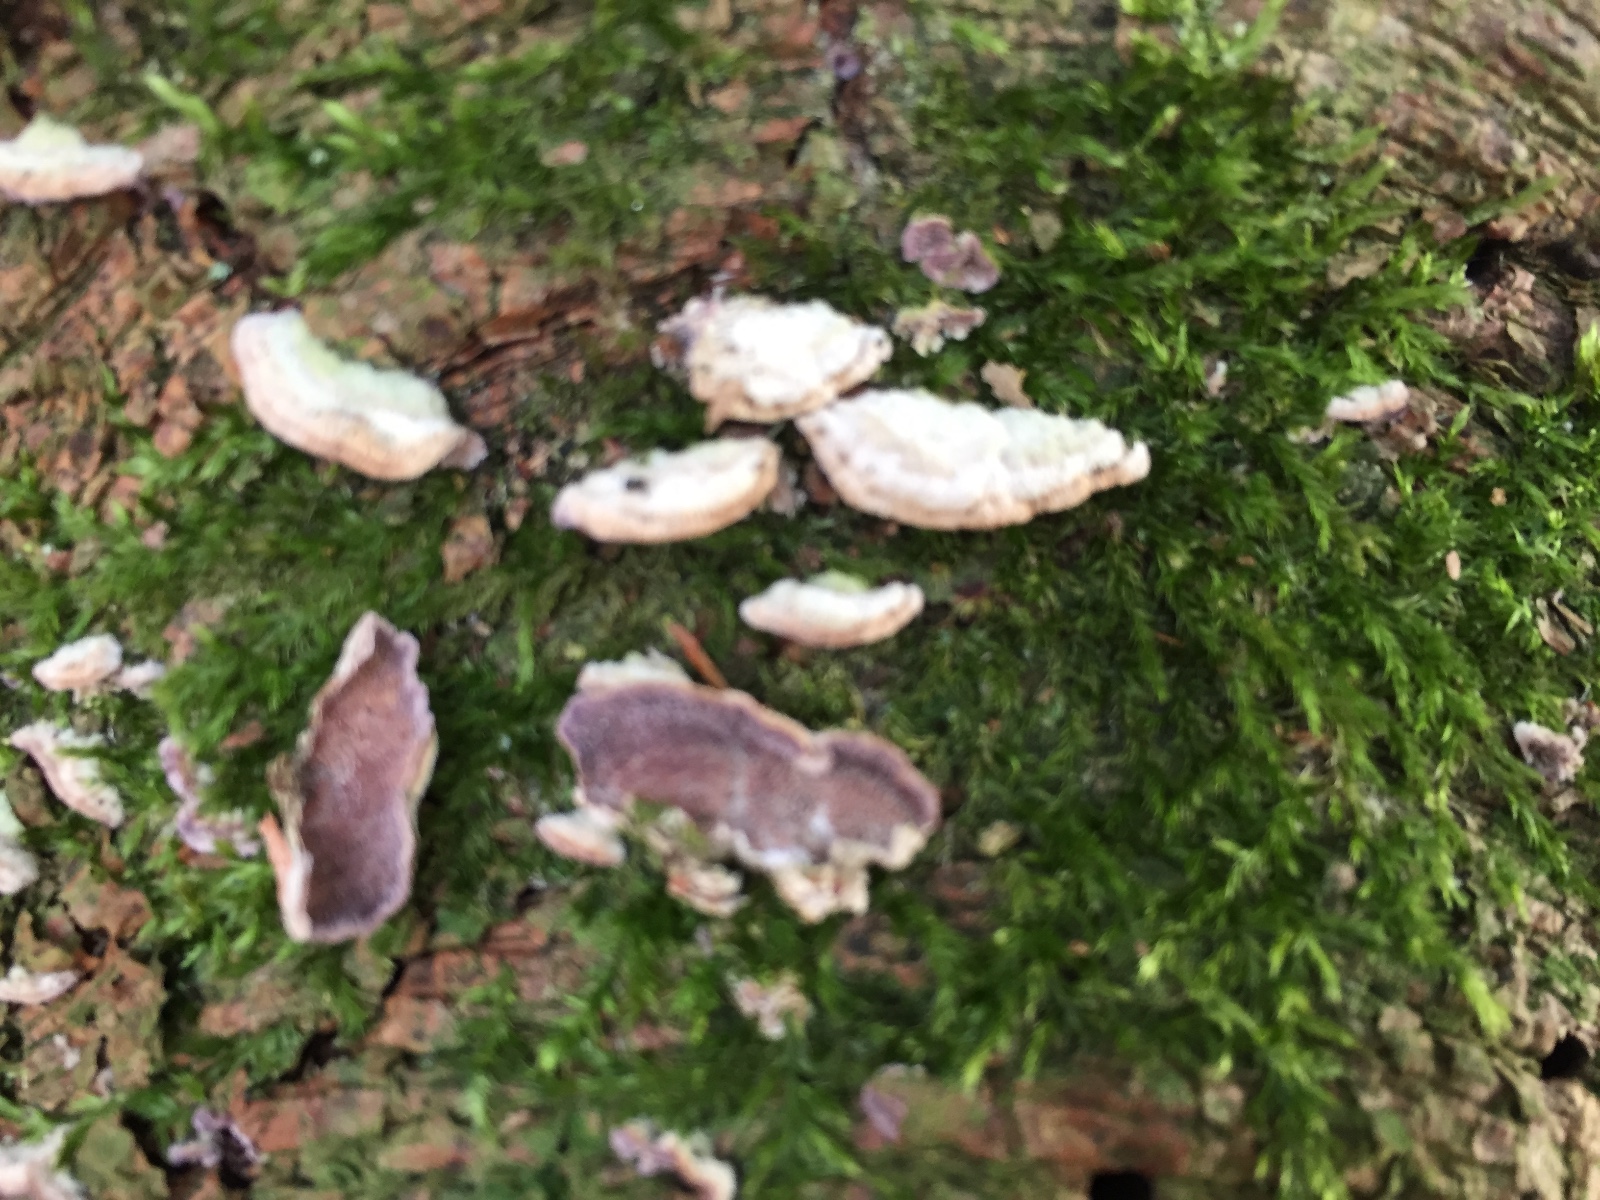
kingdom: Fungi
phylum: Basidiomycota
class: Agaricomycetes
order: Hymenochaetales
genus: Trichaptum
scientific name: Trichaptum abietinum
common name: almindelig violporesvamp
